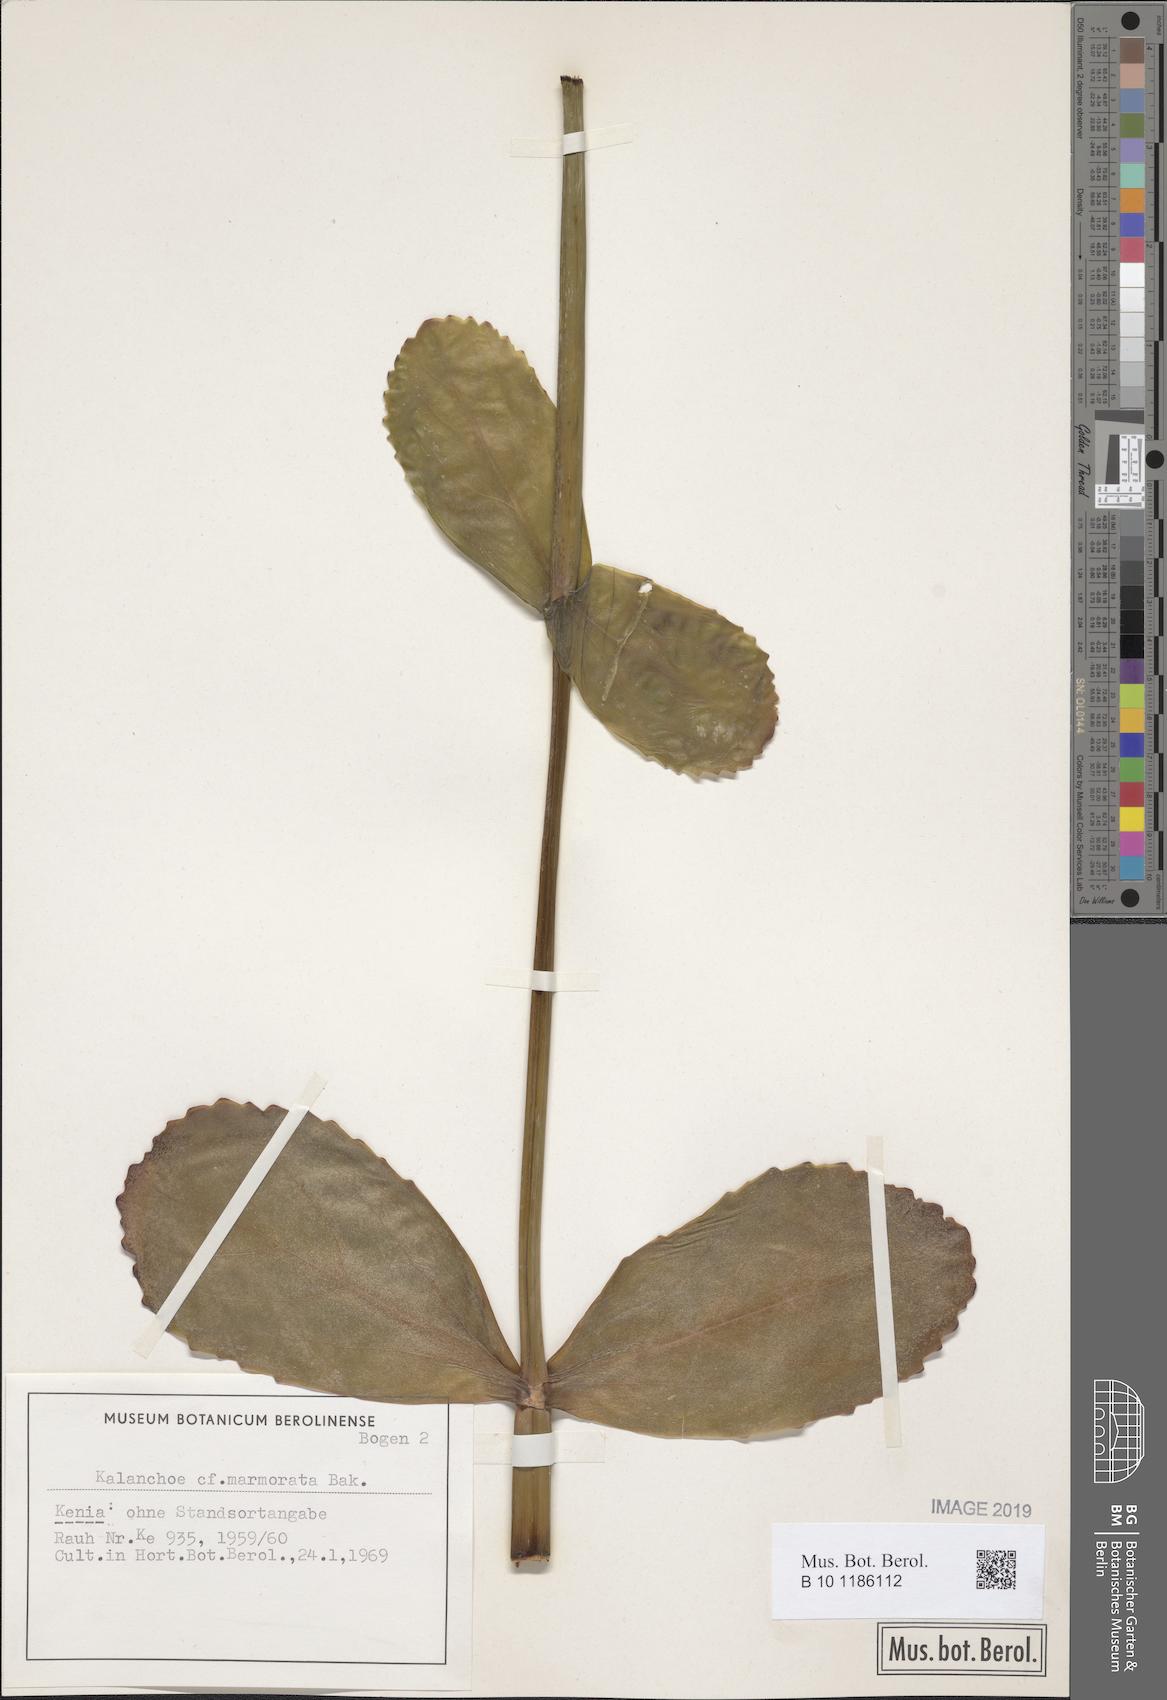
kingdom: Plantae
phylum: Tracheophyta
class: Magnoliopsida
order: Saxifragales
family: Crassulaceae
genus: Kalanchoe
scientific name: Kalanchoe marmorata
